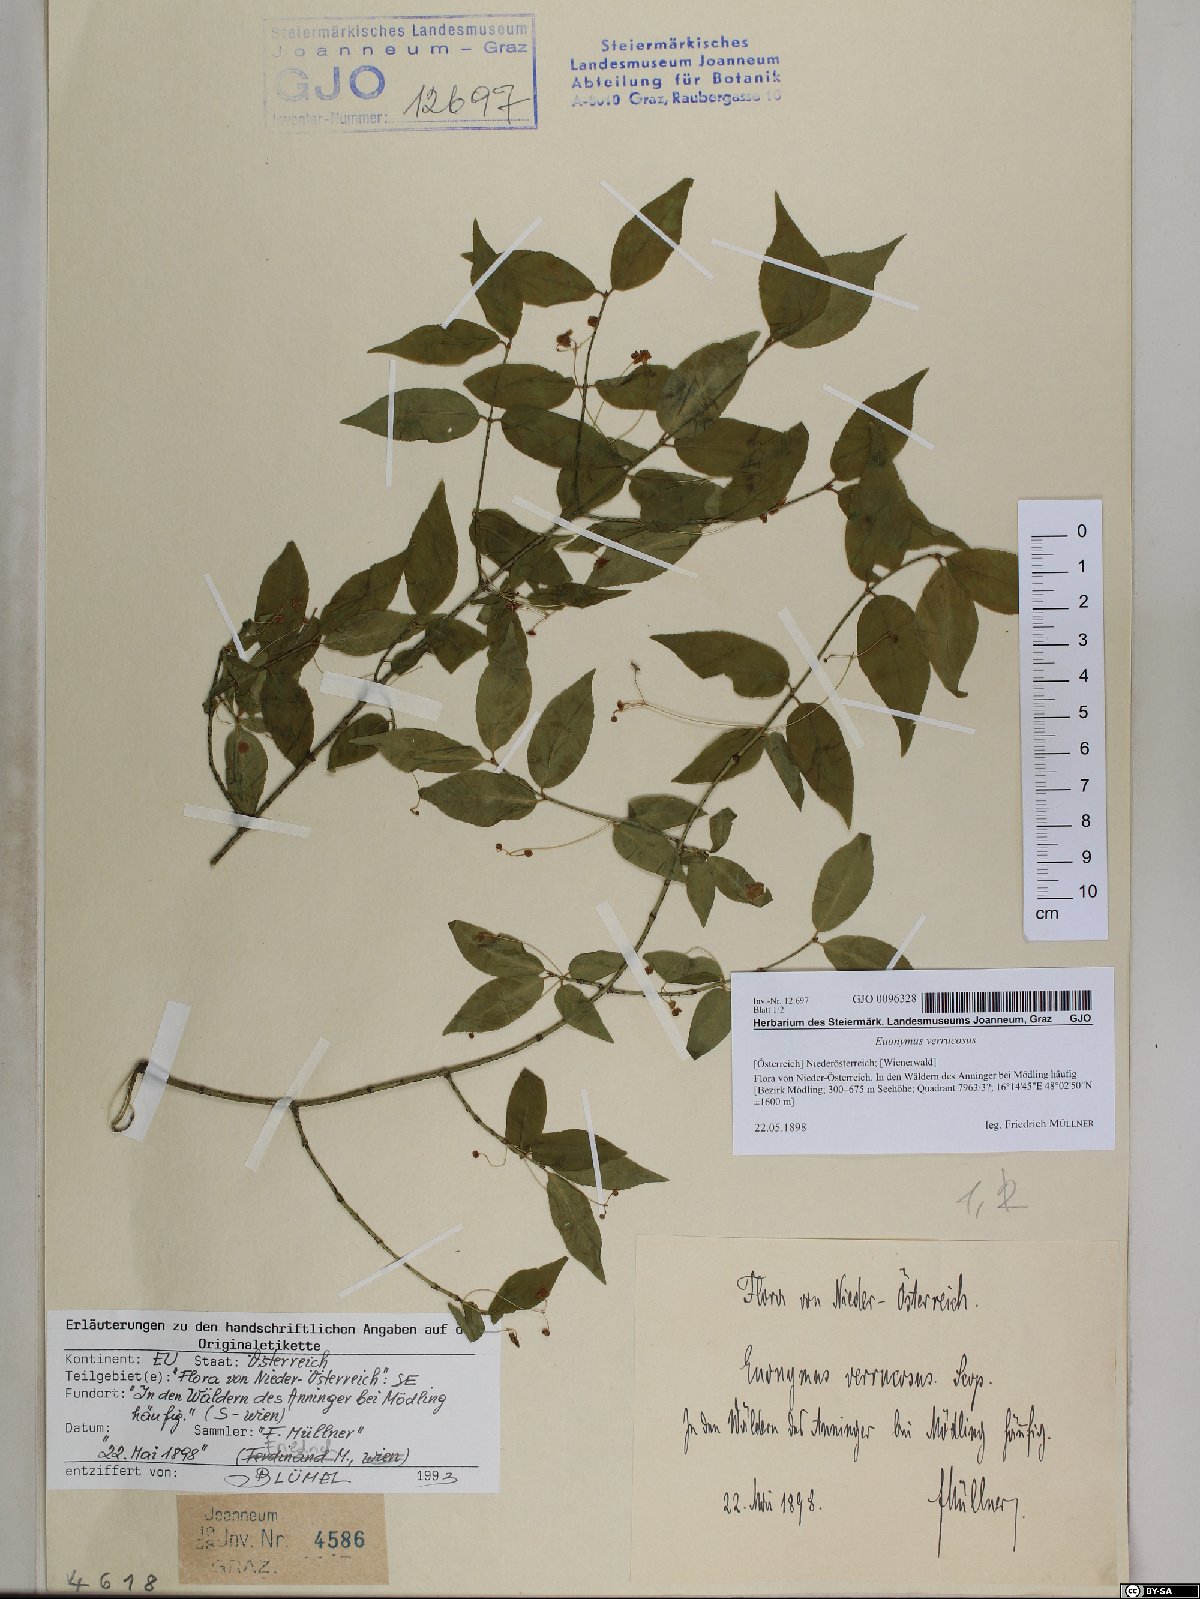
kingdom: Plantae
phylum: Tracheophyta
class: Magnoliopsida
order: Celastrales
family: Celastraceae
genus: Euonymus
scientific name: Euonymus verrucosus
